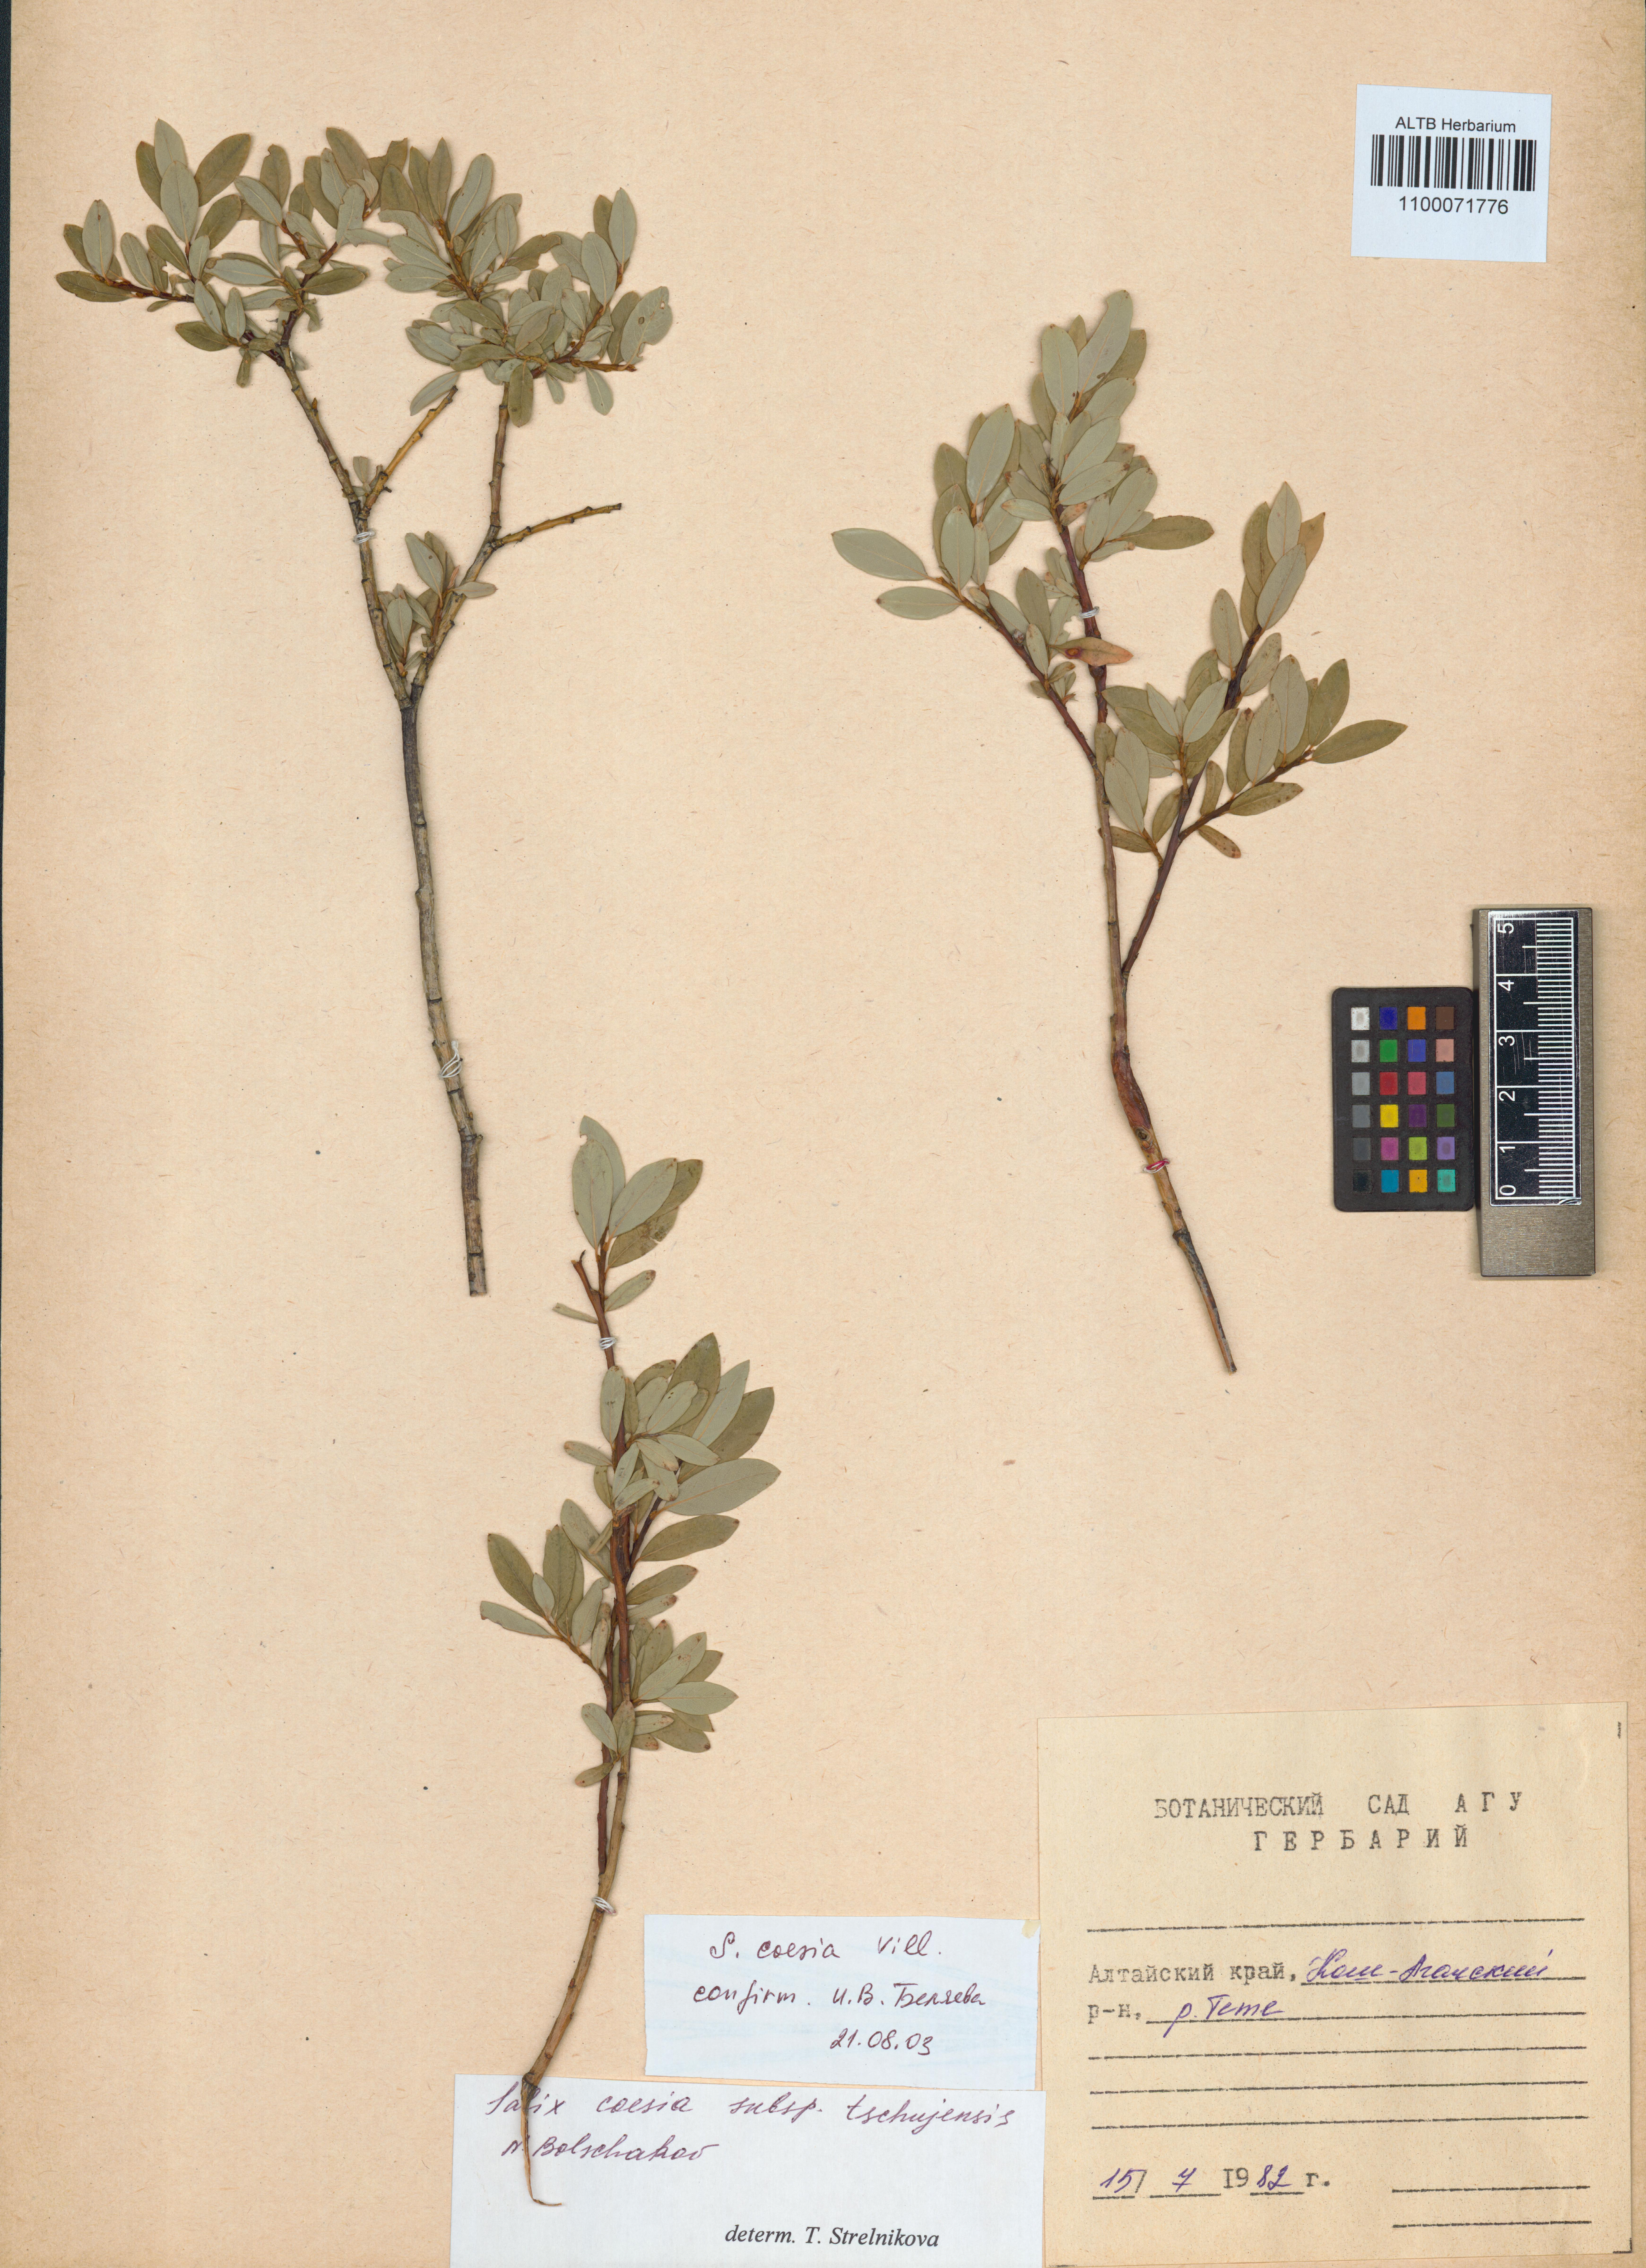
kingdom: Plantae
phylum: Tracheophyta
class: Magnoliopsida
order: Malpighiales
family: Salicaceae
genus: Salix
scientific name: Salix caesia
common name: Blue willow
